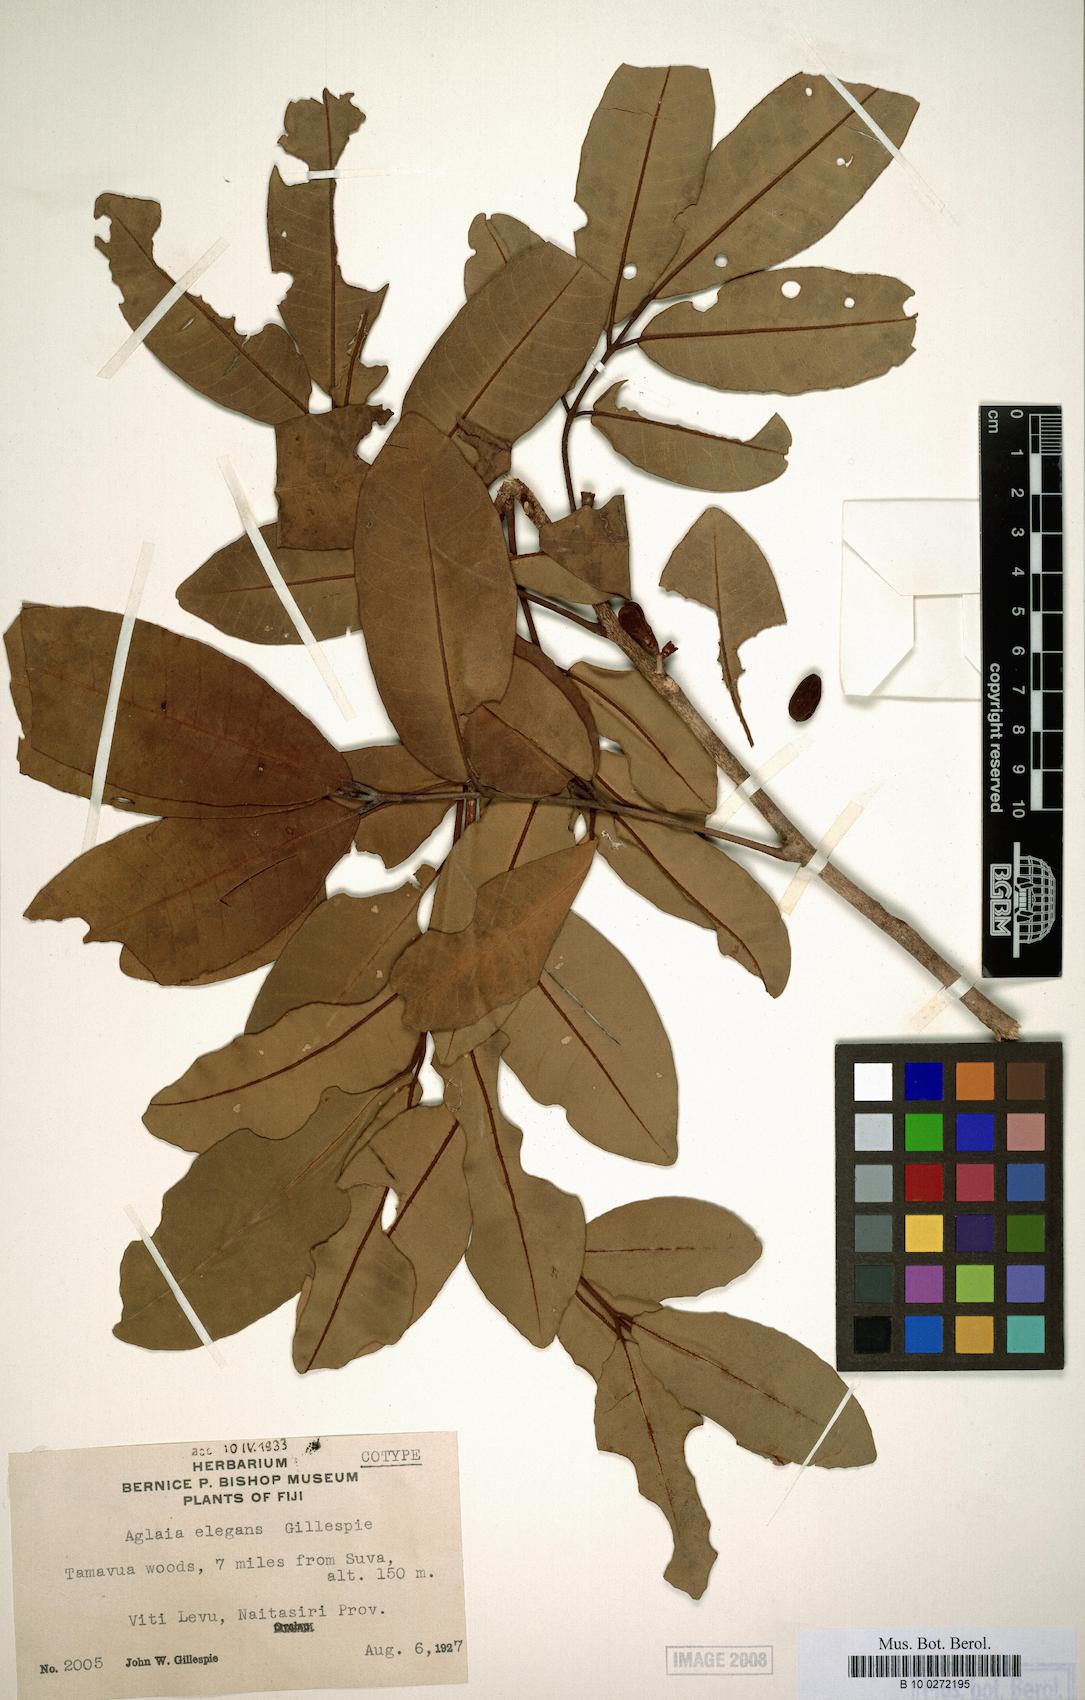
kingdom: Plantae
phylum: Tracheophyta
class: Magnoliopsida
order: Sapindales
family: Meliaceae
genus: Aglaia
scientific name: Aglaia basiphylla
